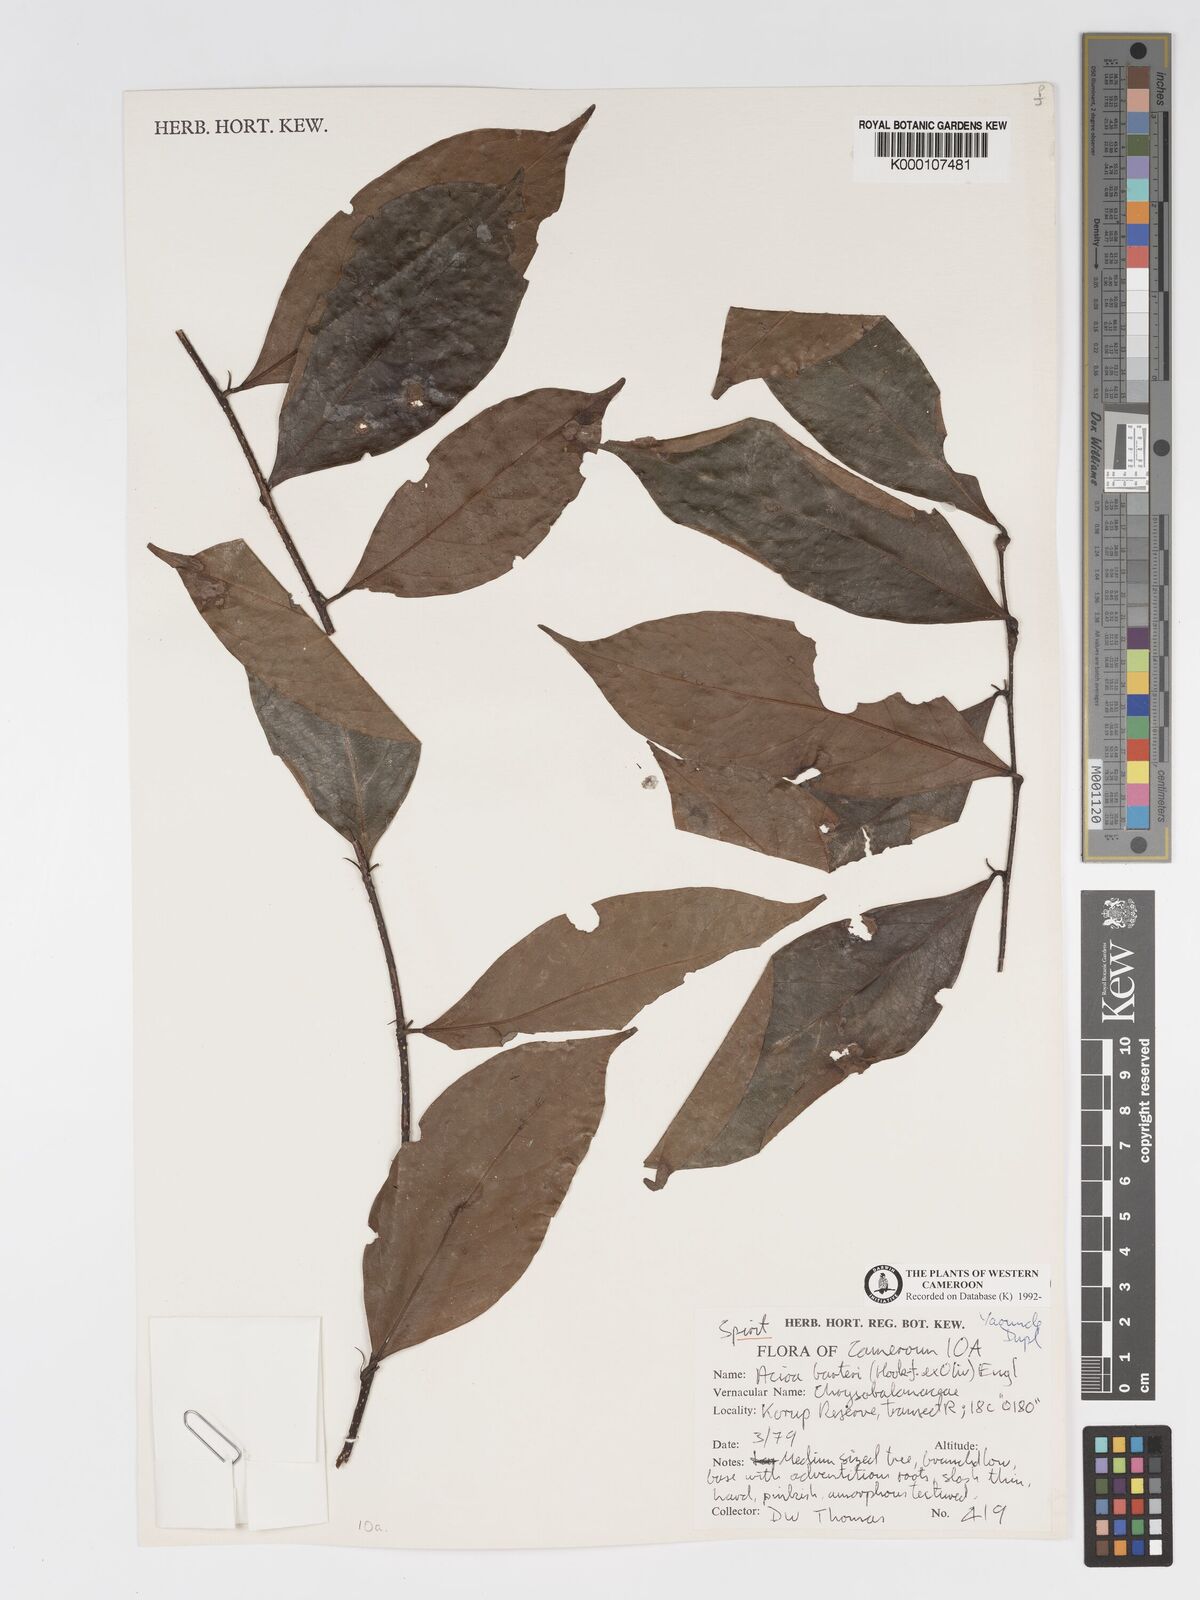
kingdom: Plantae
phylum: Tracheophyta
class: Magnoliopsida
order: Malpighiales
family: Chrysobalanaceae
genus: Dactyladenia
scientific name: Dactyladenia barteri
